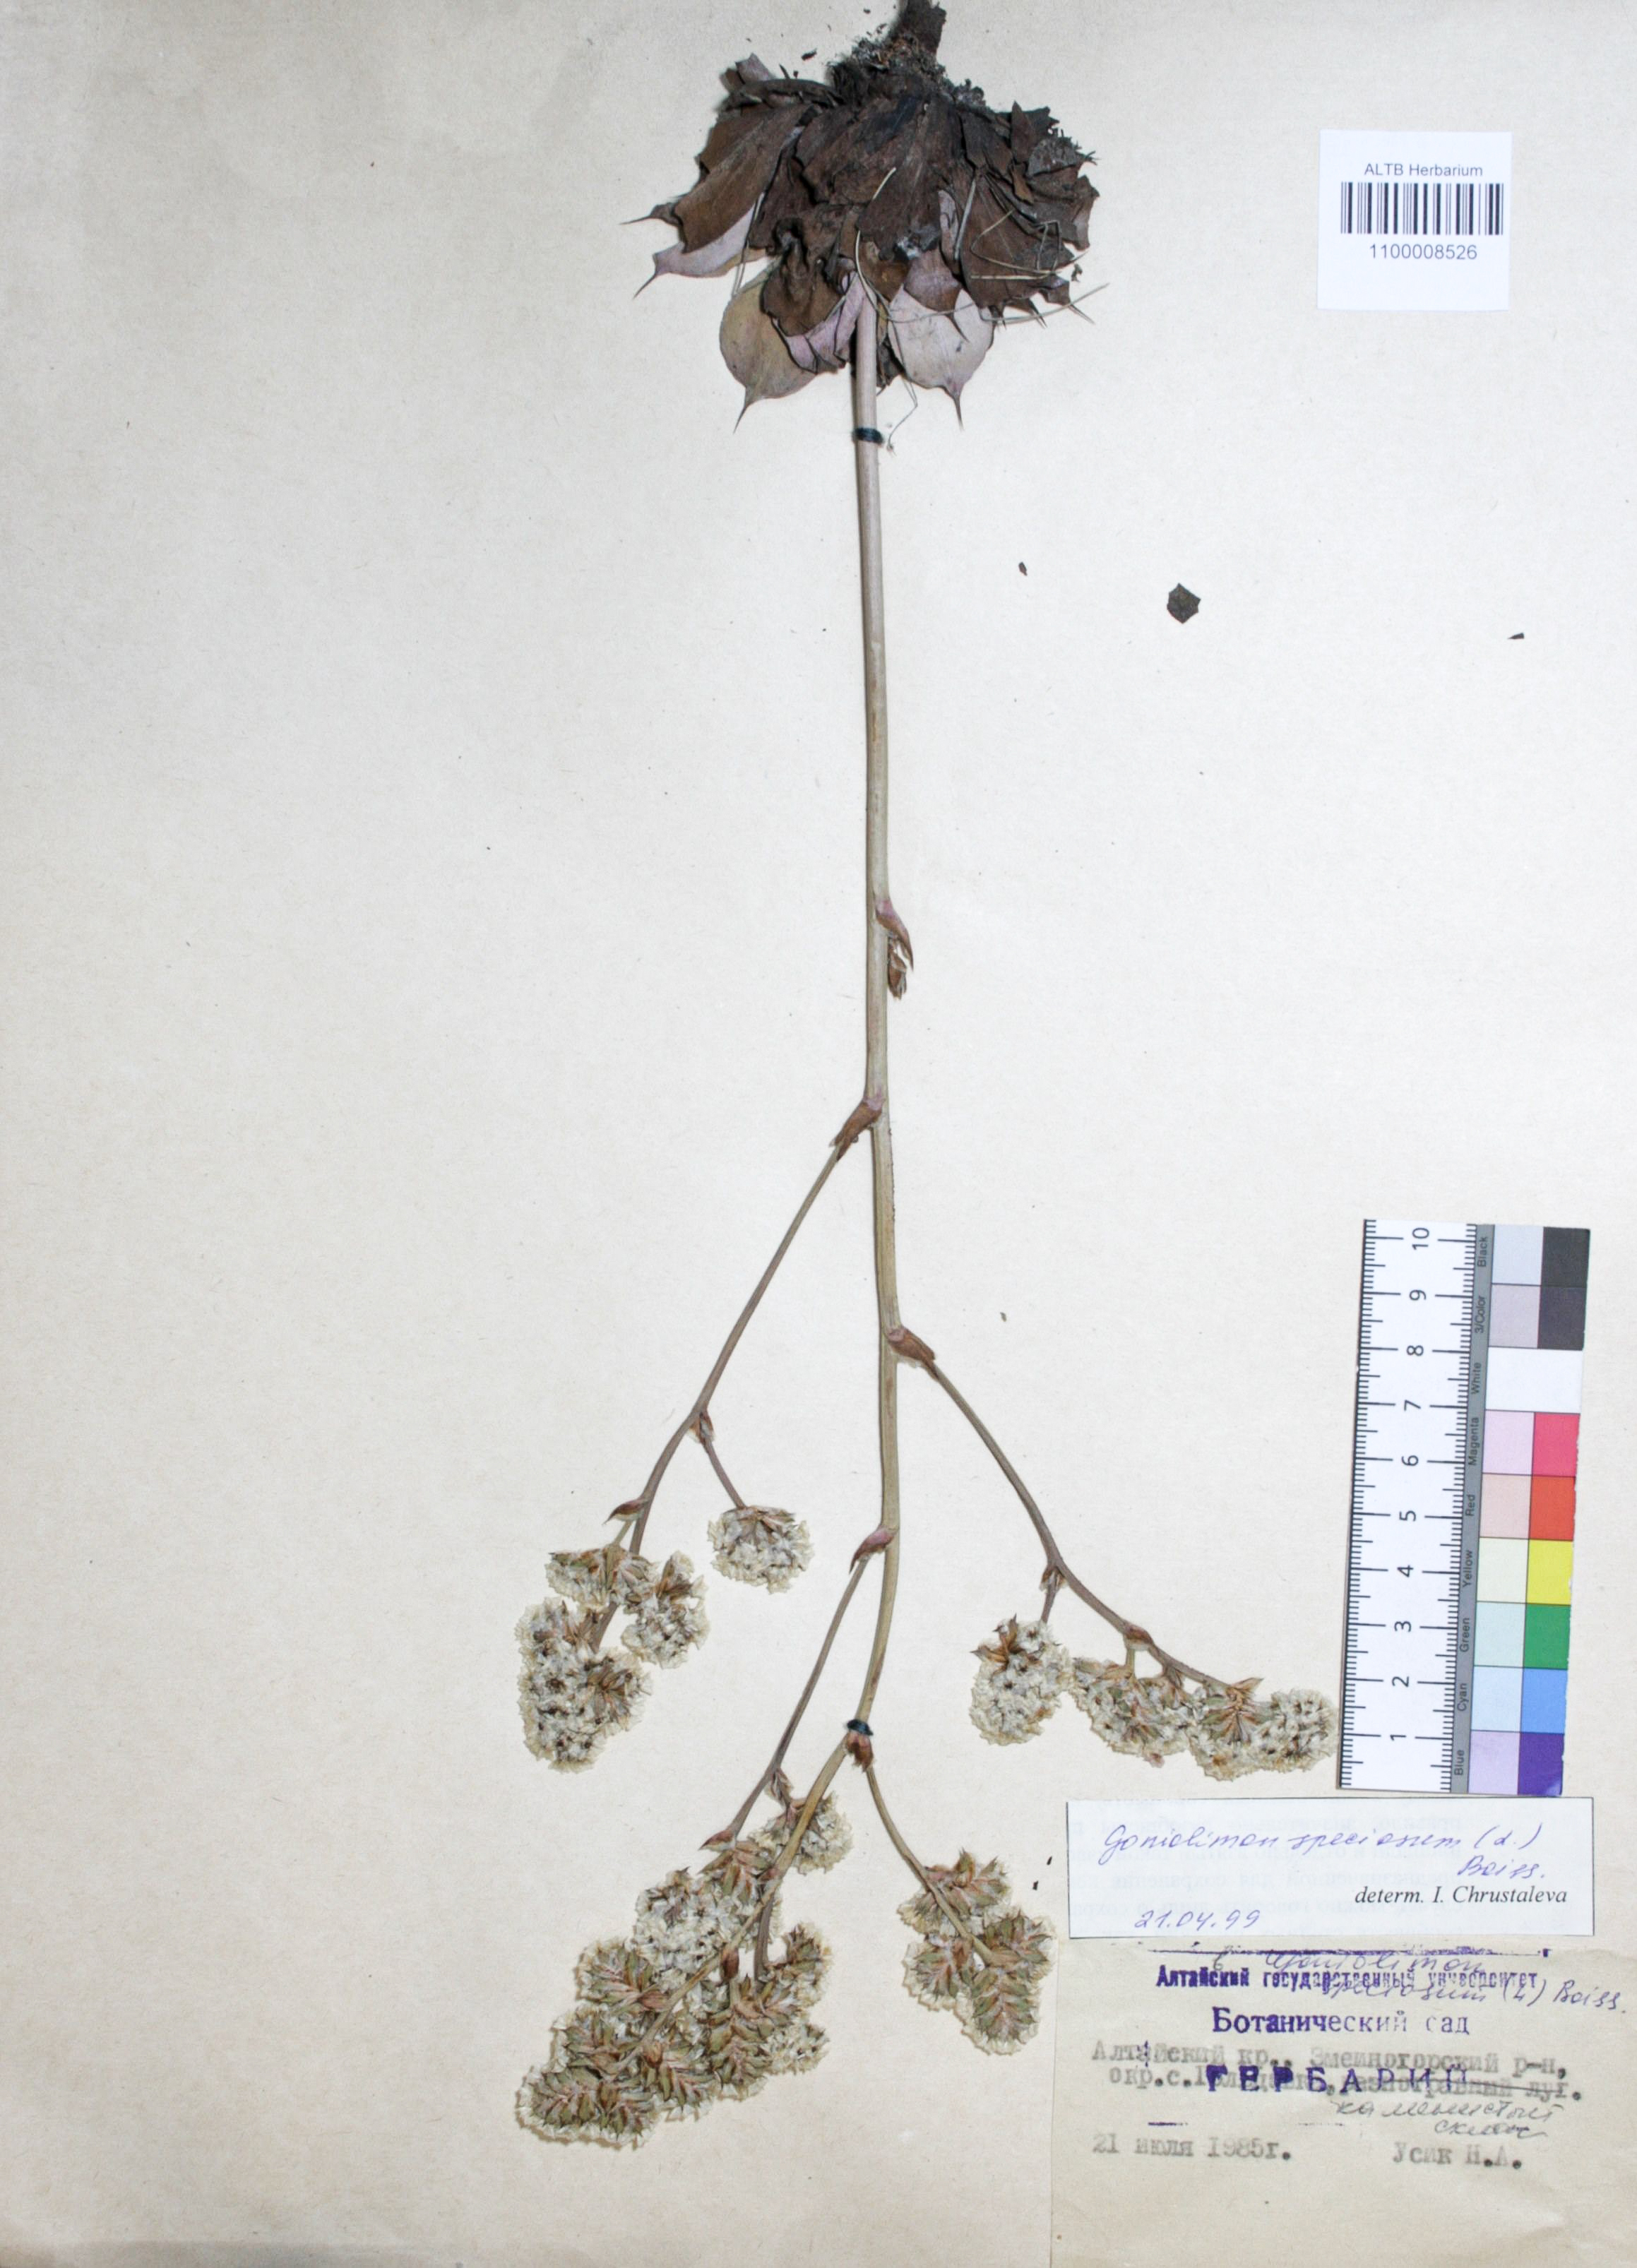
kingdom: Plantae
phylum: Tracheophyta
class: Magnoliopsida
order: Caryophyllales
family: Plumbaginaceae
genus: Goniolimon
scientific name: Goniolimon speciosum
